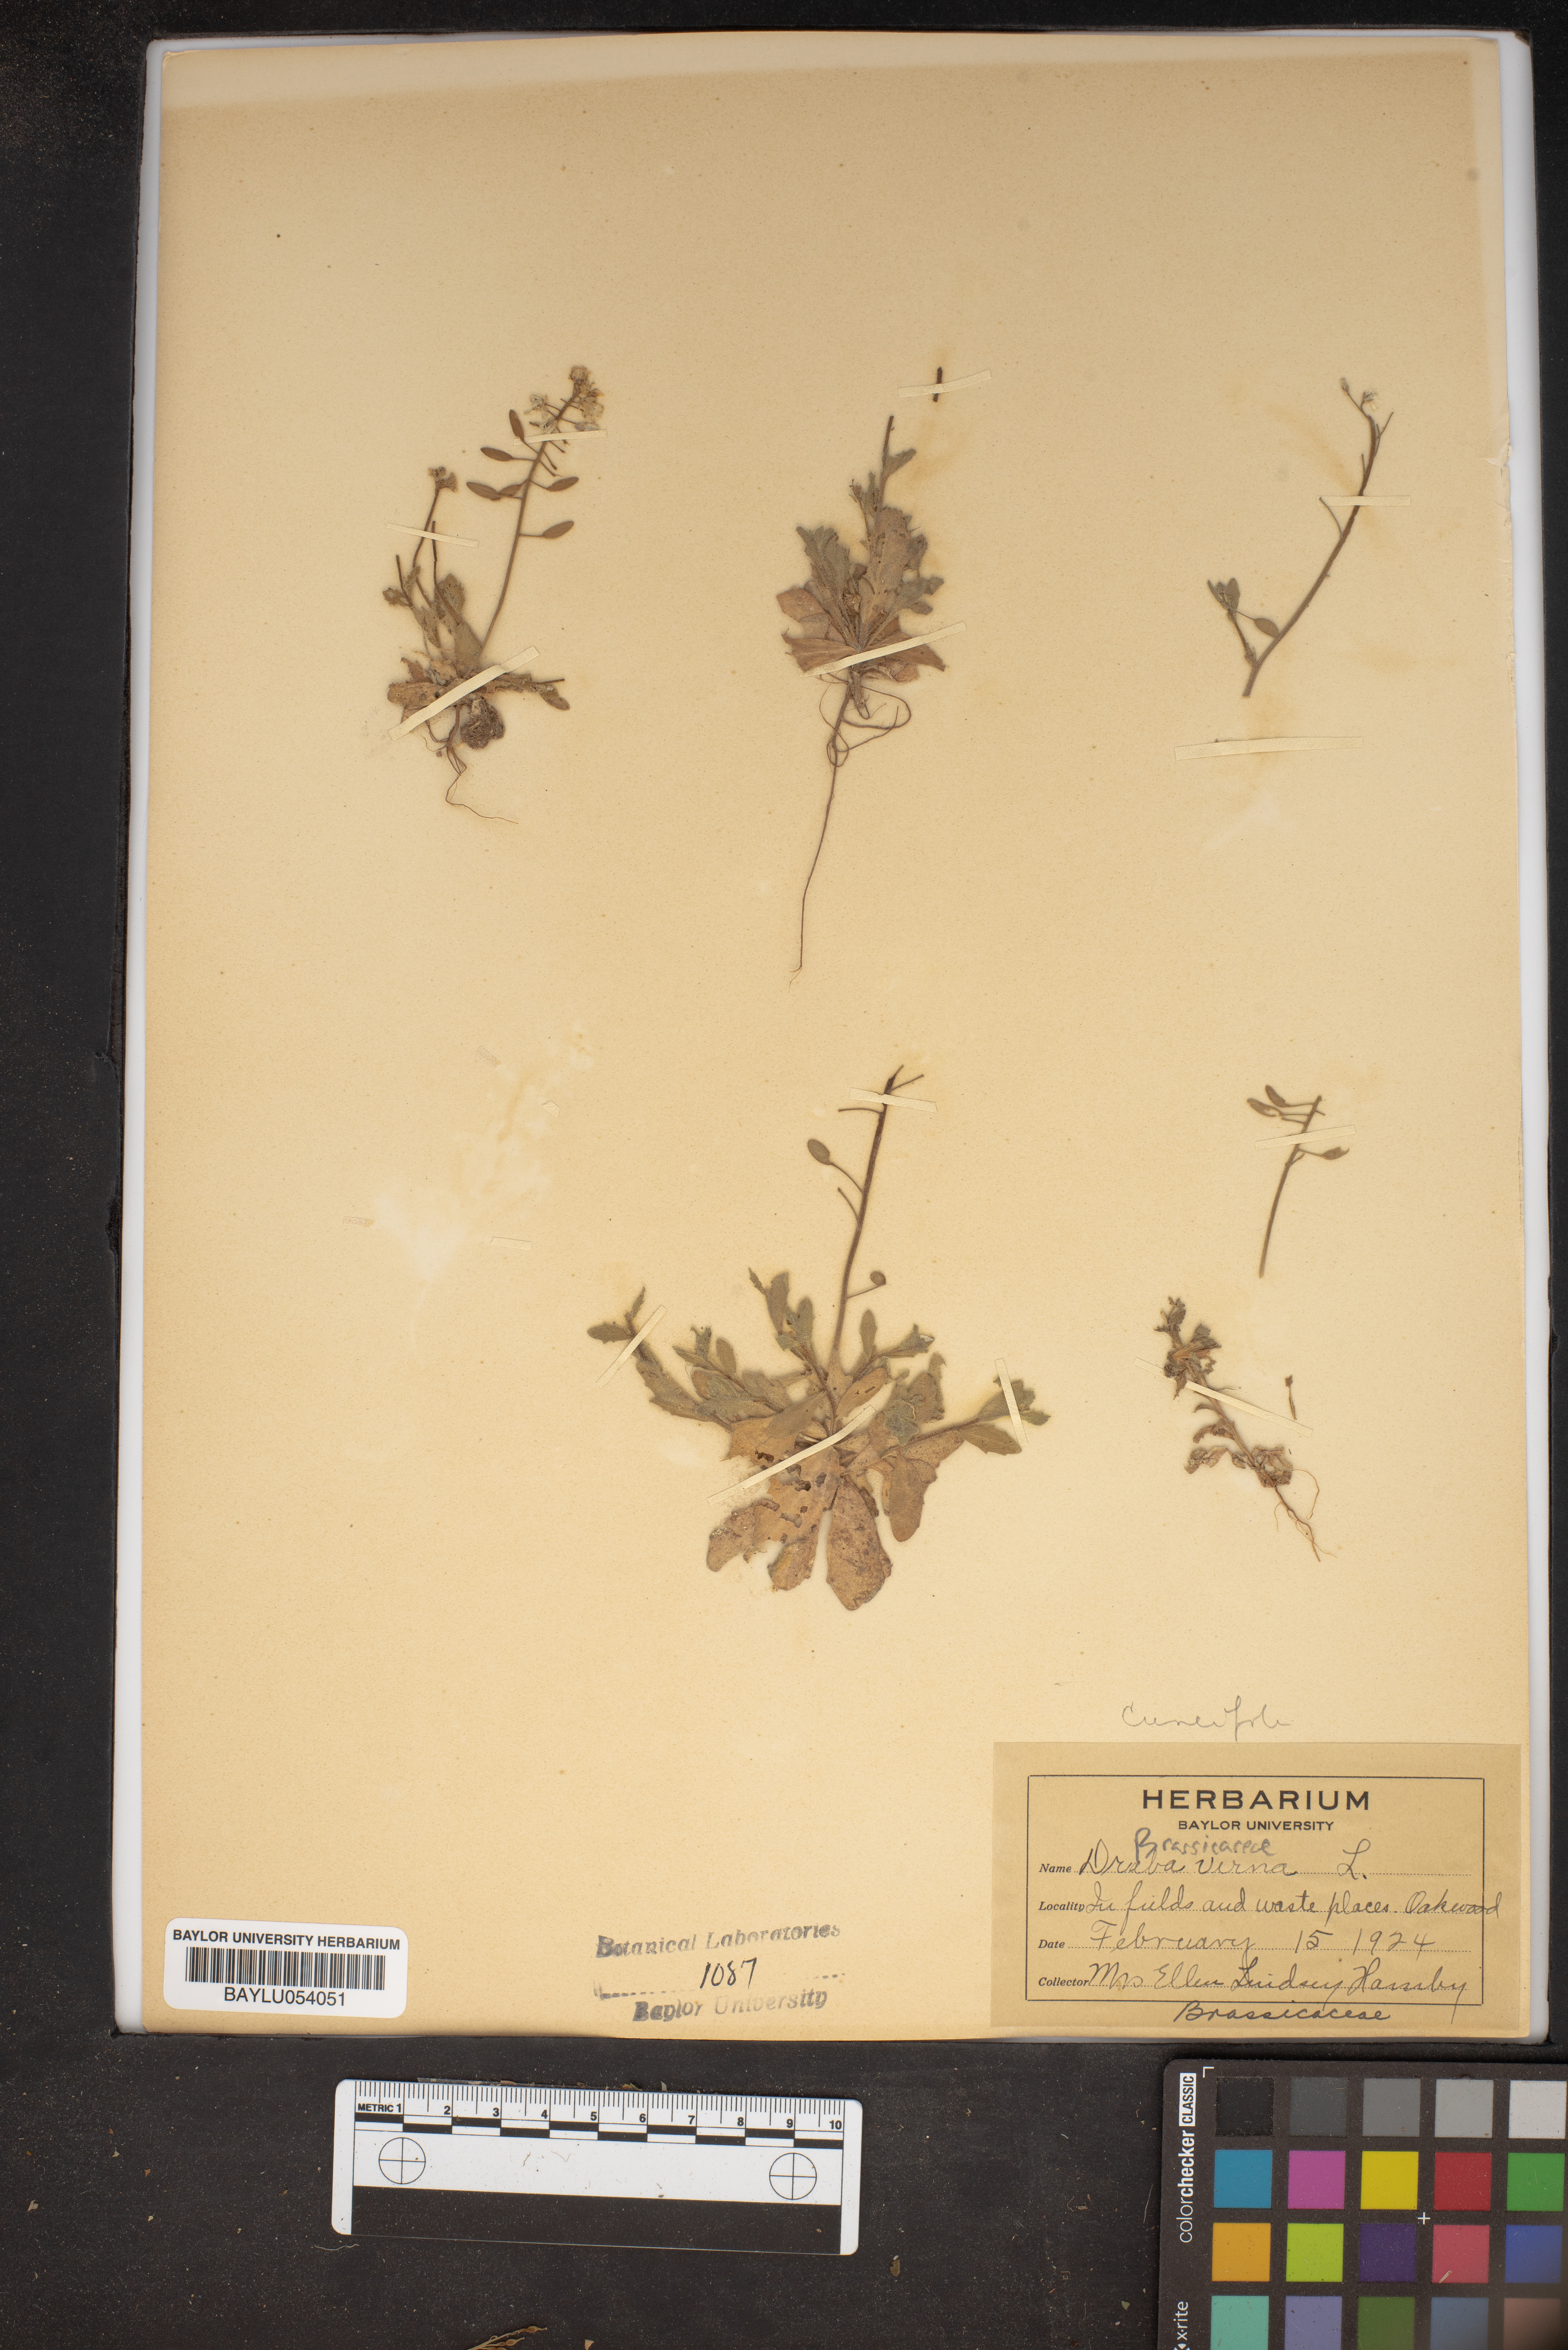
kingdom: Plantae
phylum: Tracheophyta
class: Magnoliopsida
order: Brassicales
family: Brassicaceae
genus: Draba
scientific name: Draba verna
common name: Spring draba
